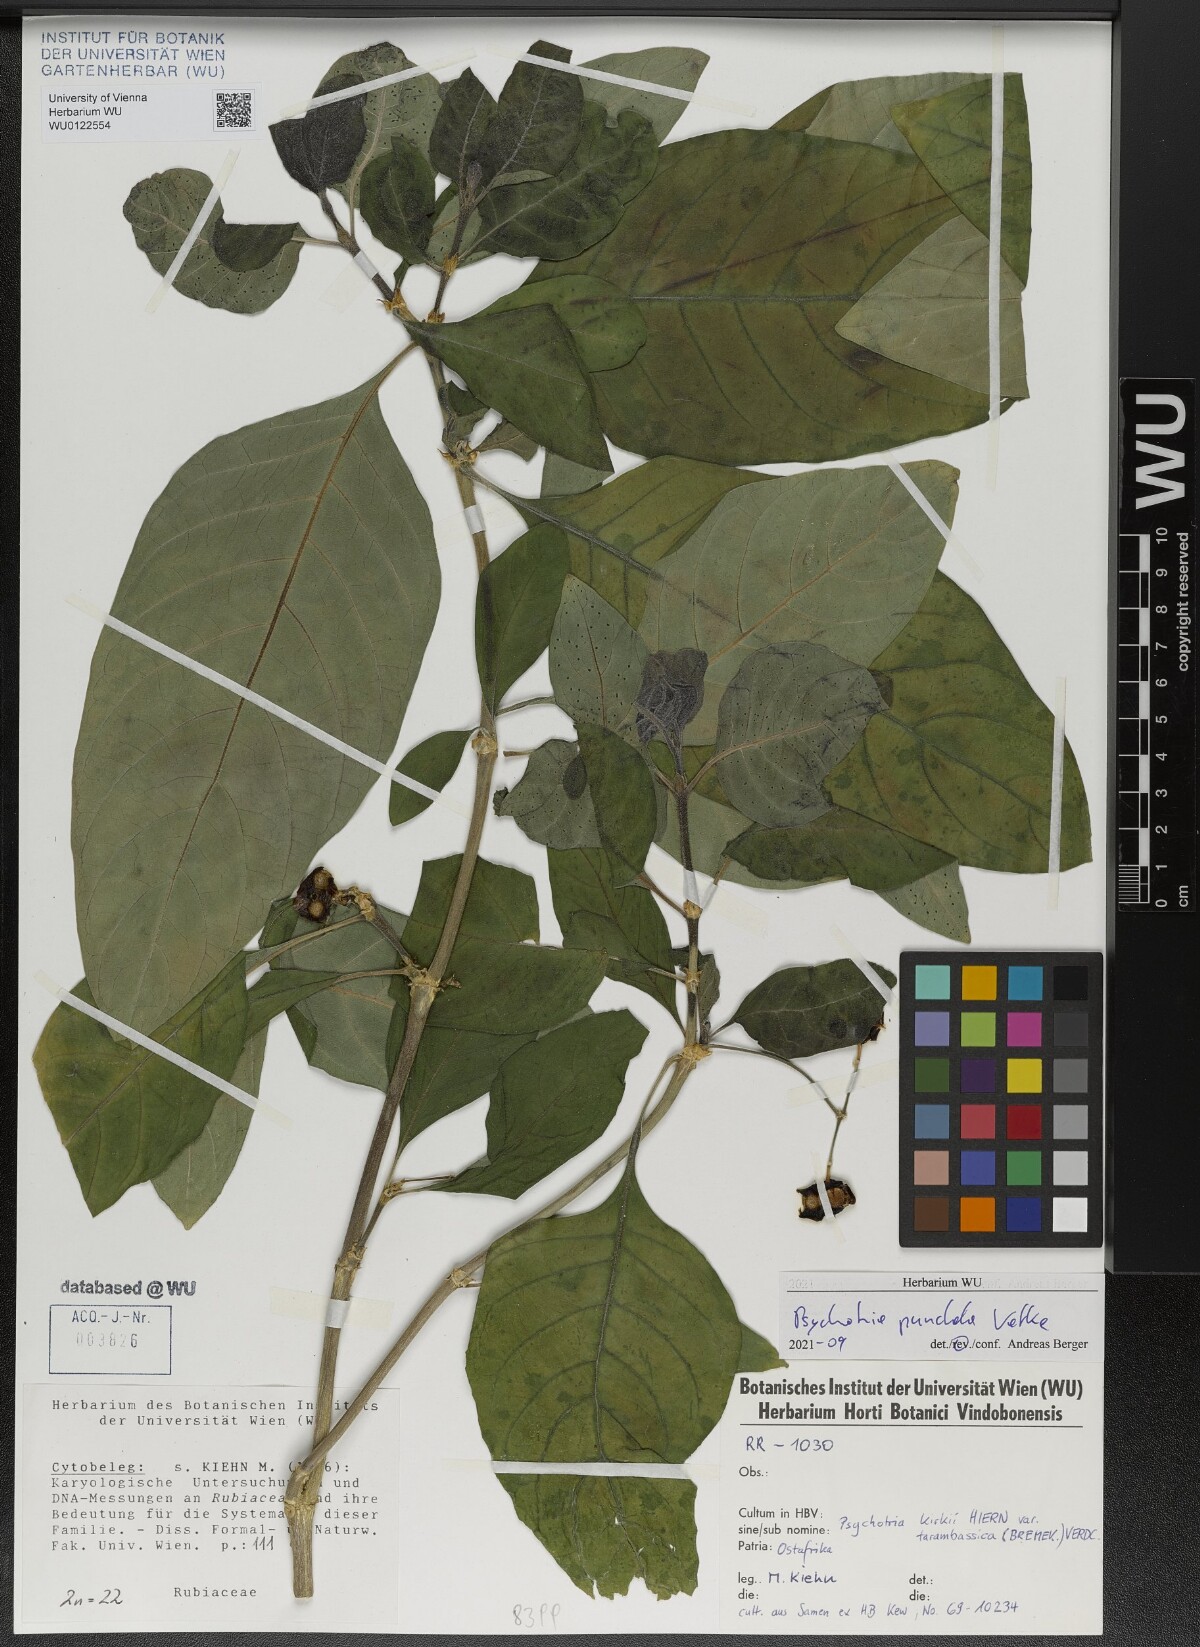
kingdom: Plantae
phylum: Tracheophyta
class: Magnoliopsida
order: Gentianales
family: Rubiaceae
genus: Psychotria
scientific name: Psychotria punctata
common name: Dotted wild coffee
